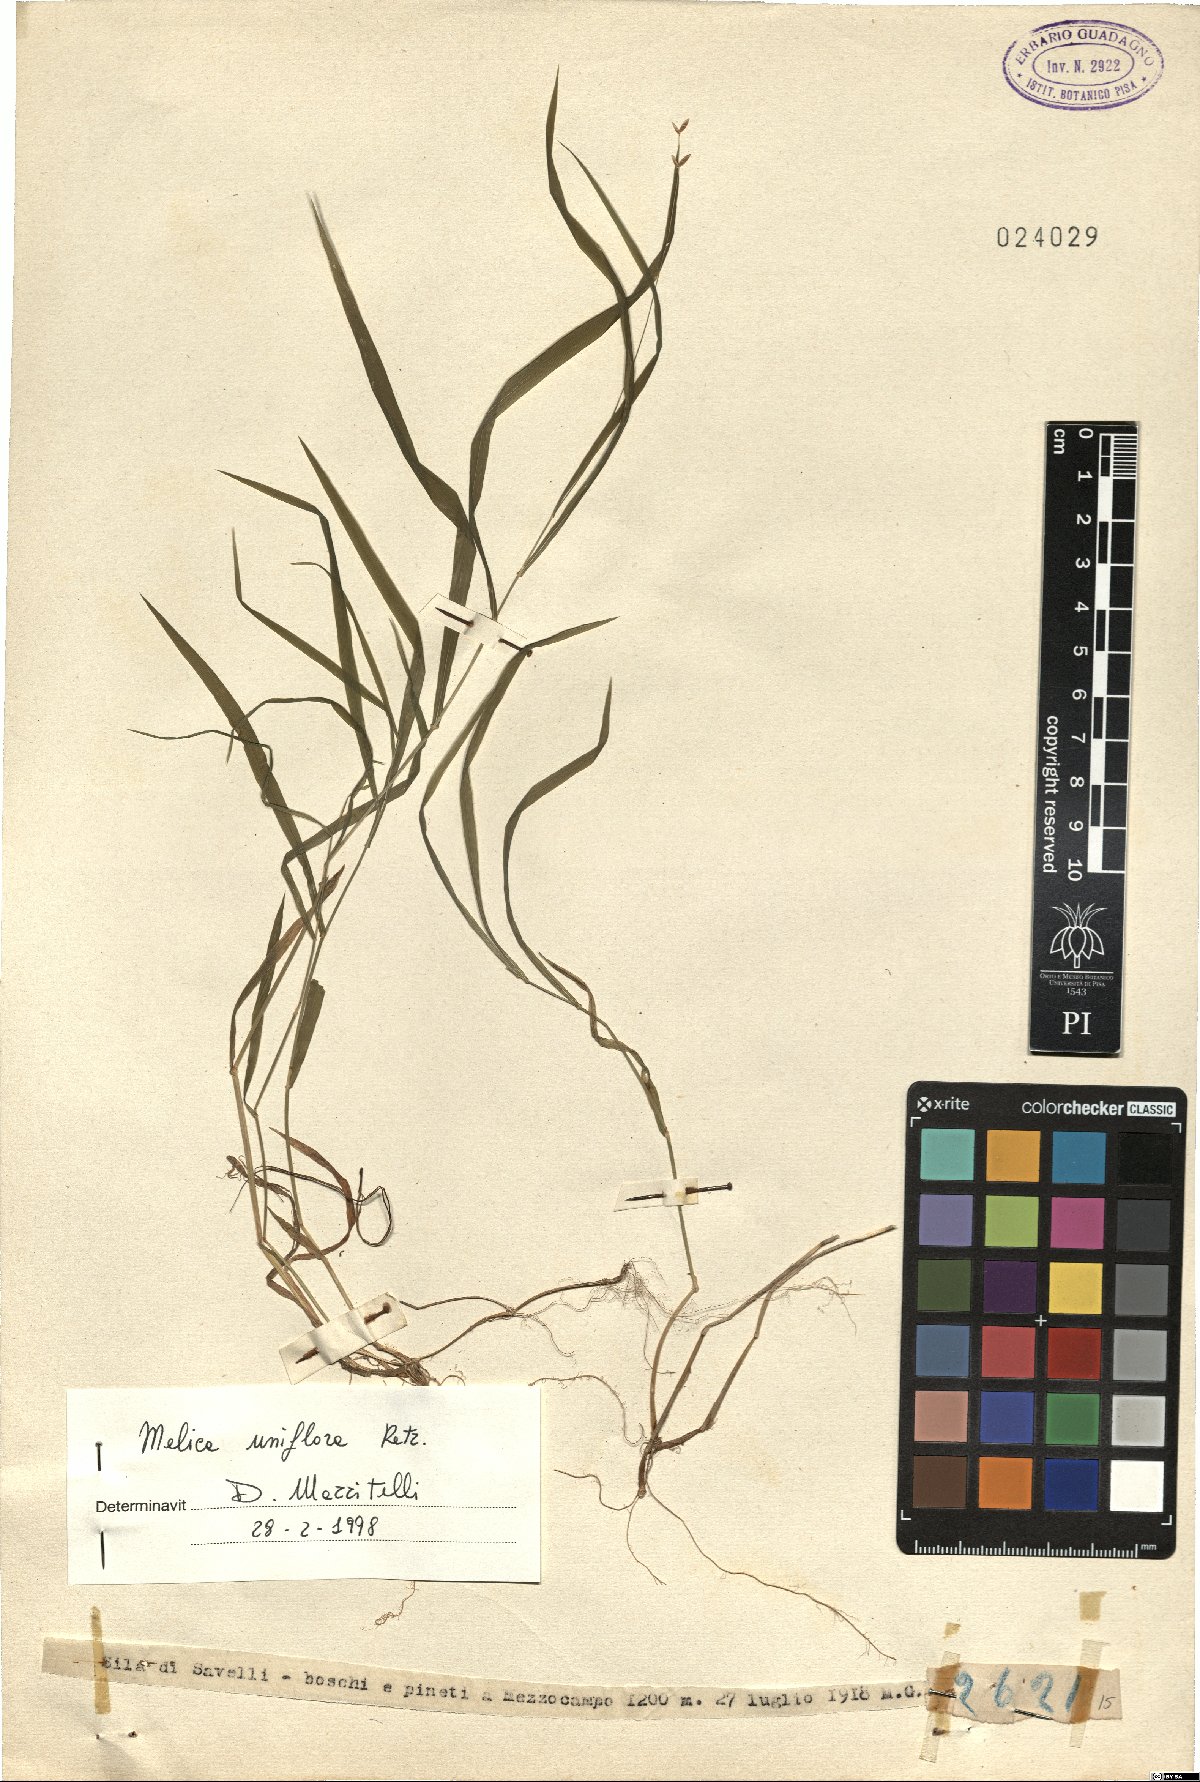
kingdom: Plantae
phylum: Tracheophyta
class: Liliopsida
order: Poales
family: Poaceae
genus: Melica
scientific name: Melica uniflora
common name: Wood melick
